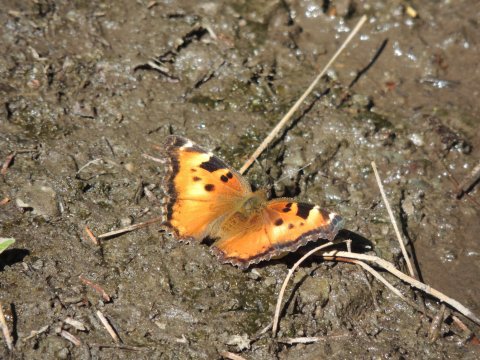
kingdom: Animalia
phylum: Arthropoda
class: Insecta
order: Lepidoptera
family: Nymphalidae
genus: Nymphalis
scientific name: Nymphalis californica
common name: California Tortoiseshell
